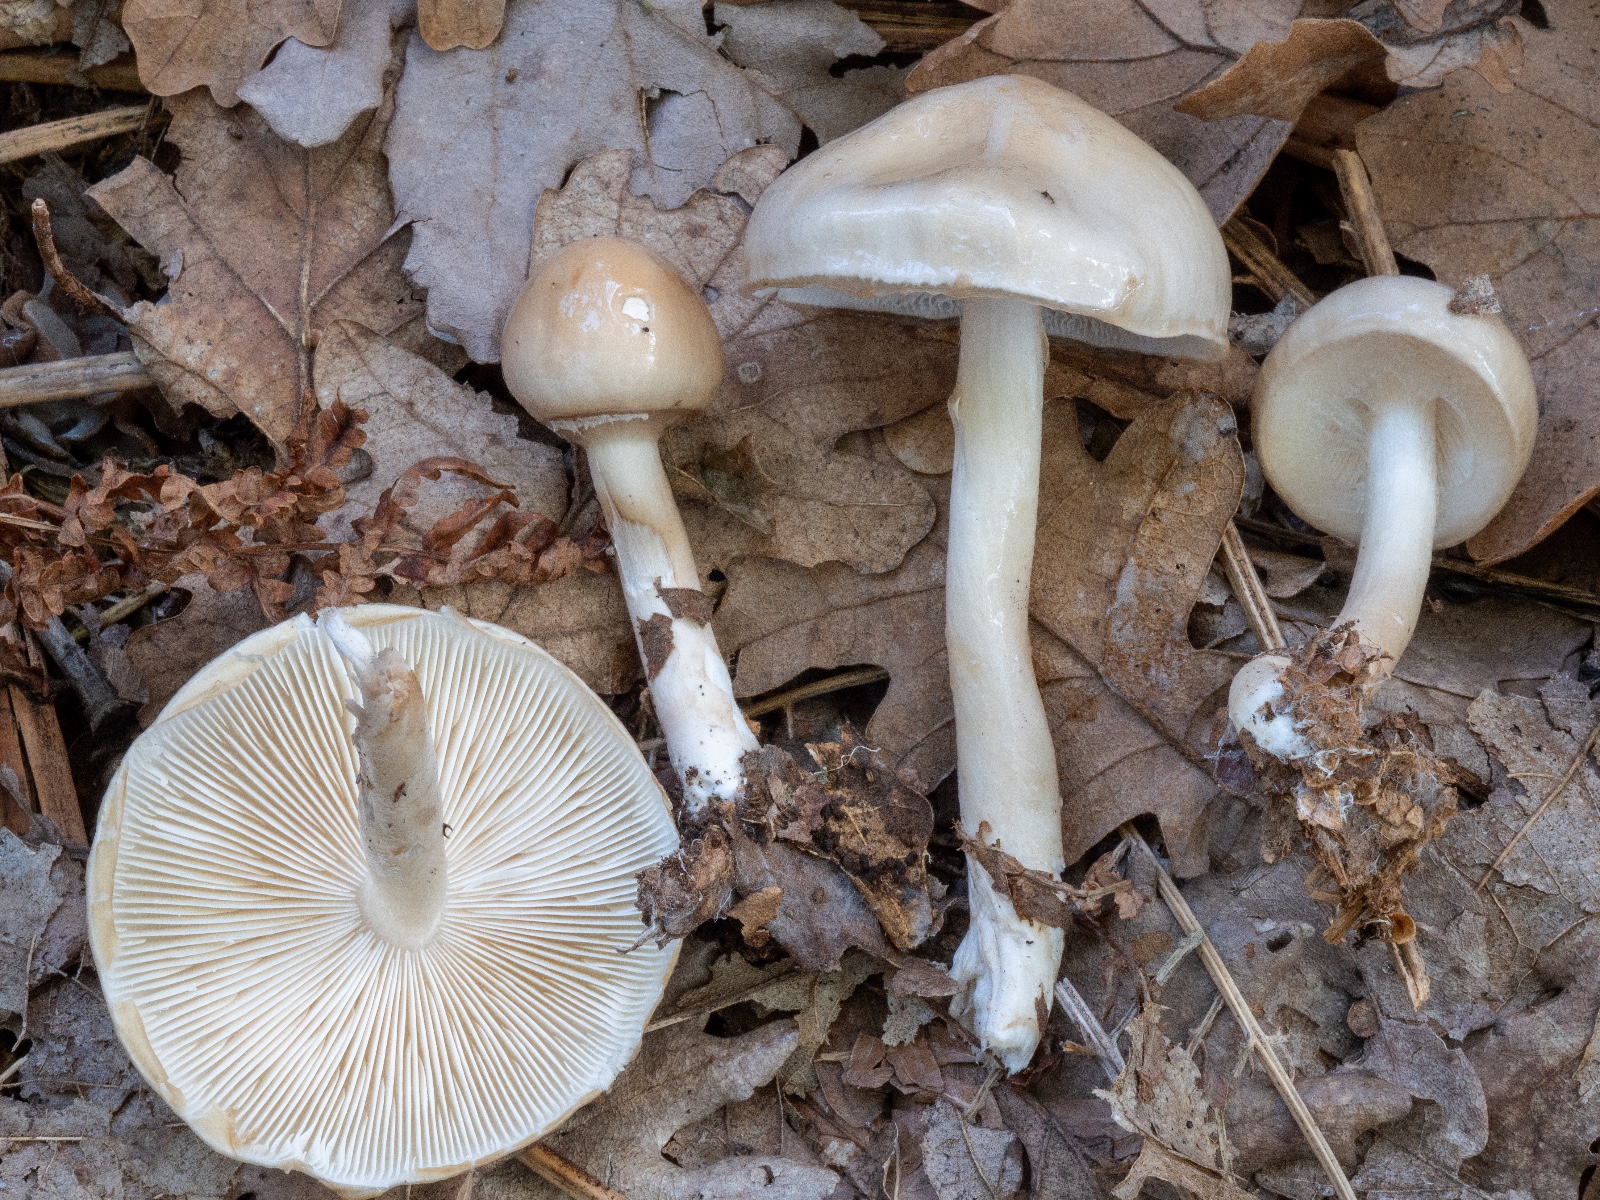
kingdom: Fungi
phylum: Basidiomycota
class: Agaricomycetes
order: Agaricales
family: Amanitaceae
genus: Zhuliangomyces
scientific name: Zhuliangomyces illinitus
